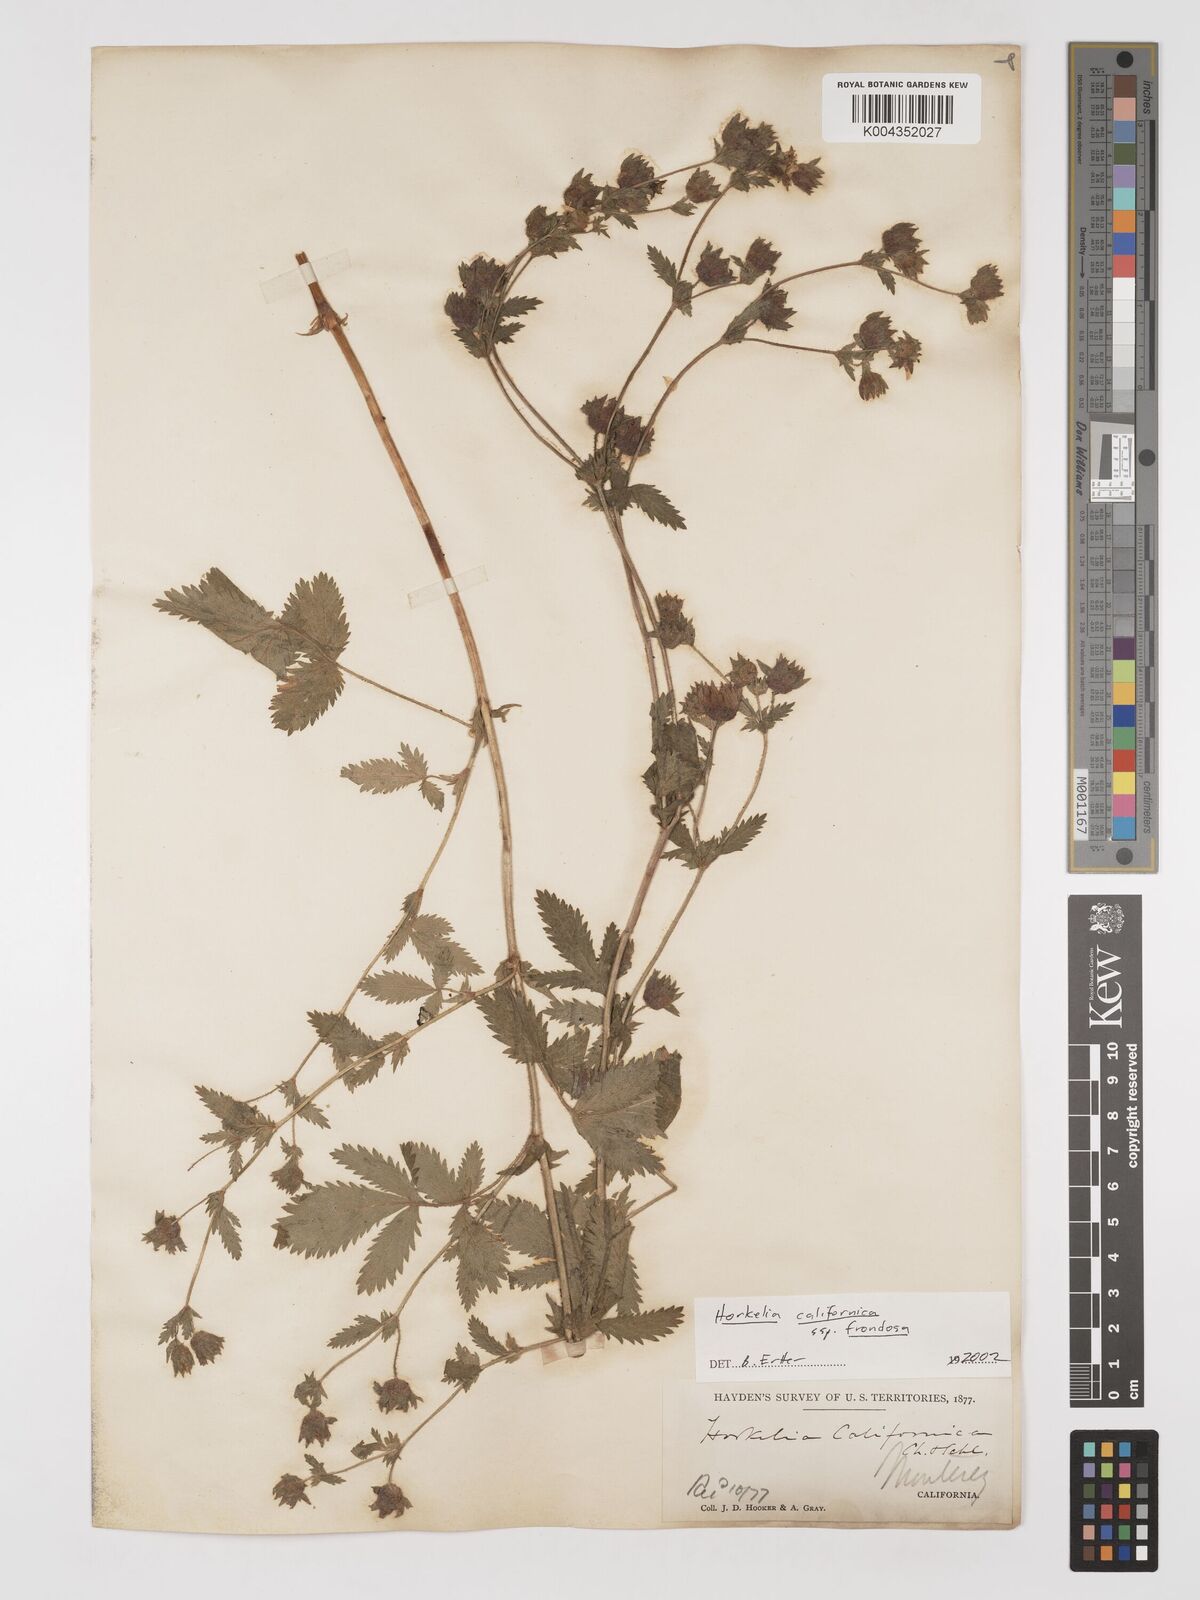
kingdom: Plantae
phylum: Tracheophyta
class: Magnoliopsida
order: Rosales
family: Rosaceae
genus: Potentilla
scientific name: Potentilla californica
